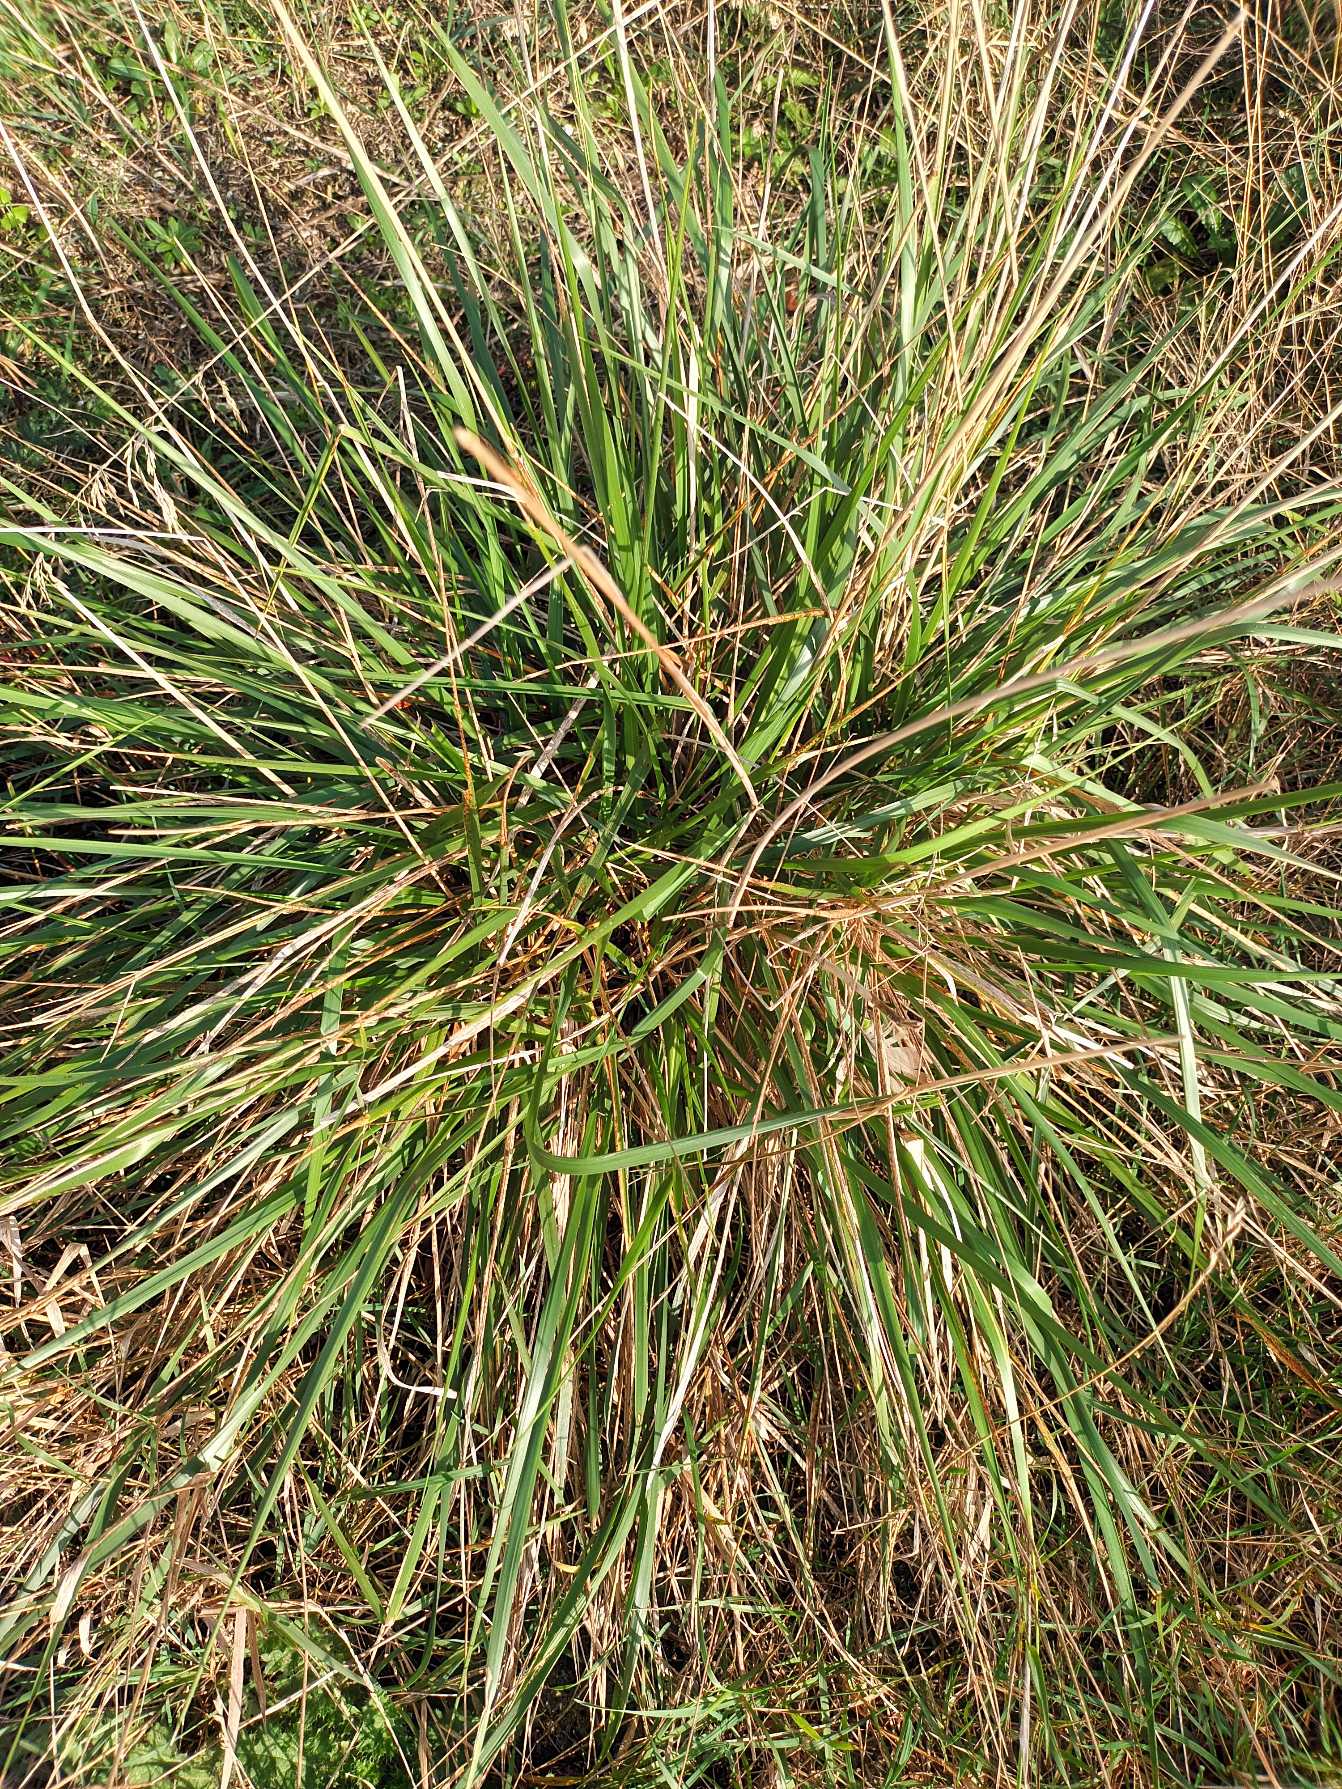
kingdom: Plantae
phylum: Tracheophyta
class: Liliopsida
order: Poales
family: Poaceae
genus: Lolium
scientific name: Lolium arundinaceum
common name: Strand-svingel
